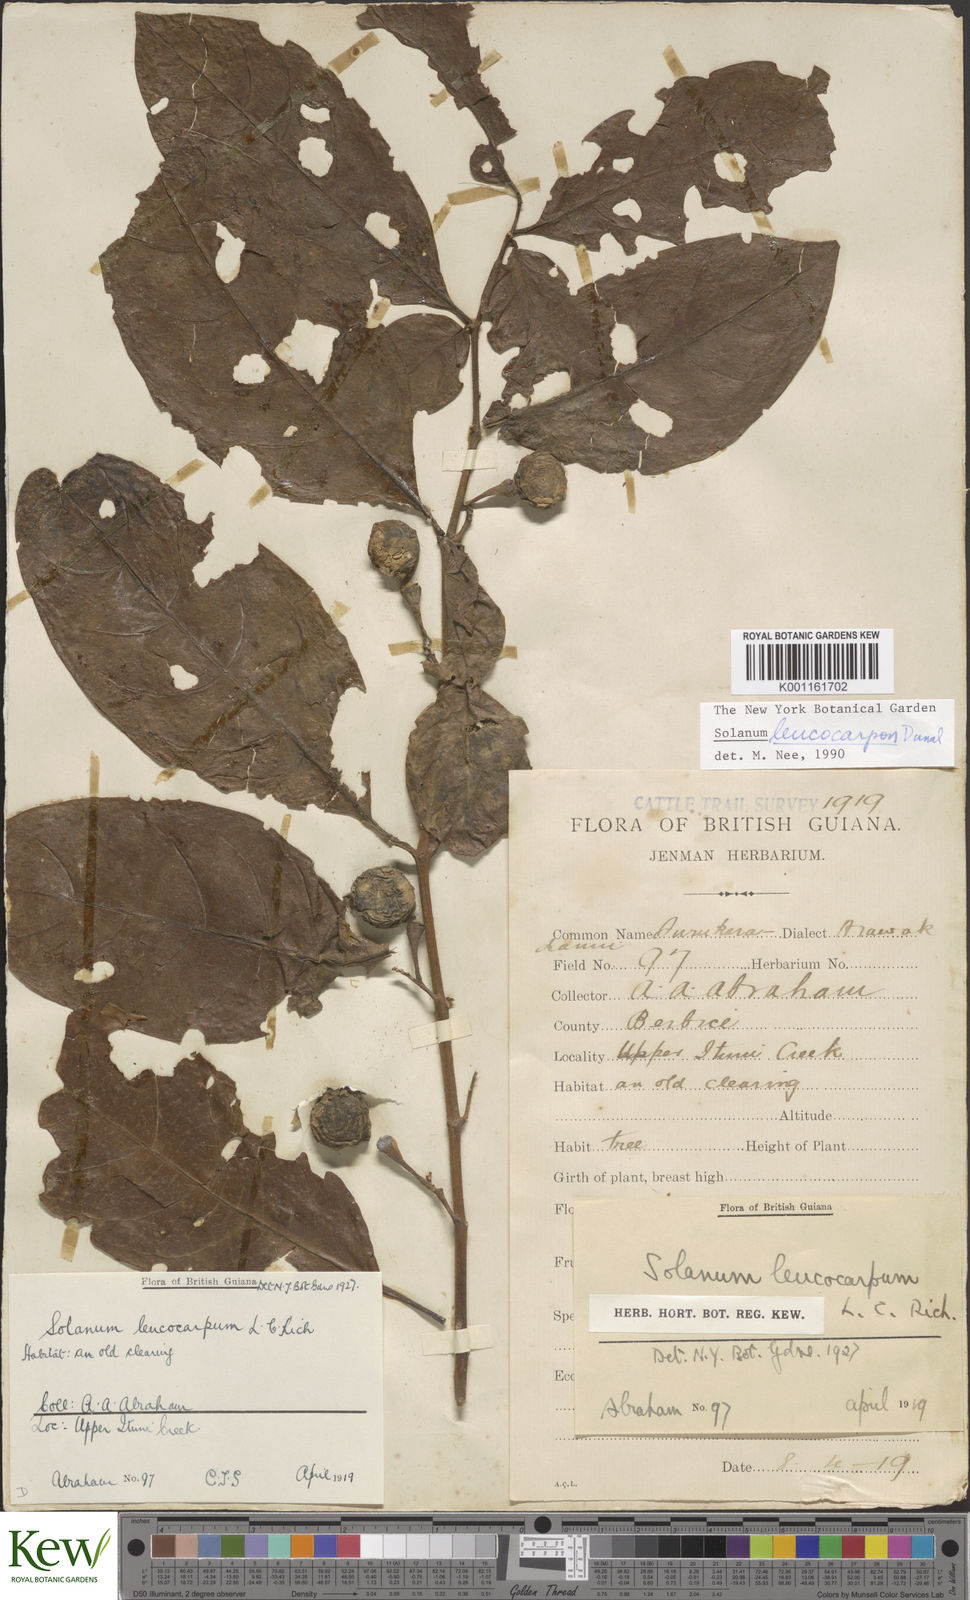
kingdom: Plantae
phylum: Tracheophyta
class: Magnoliopsida
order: Solanales
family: Solanaceae
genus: Solanum
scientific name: Solanum leucocarpon
